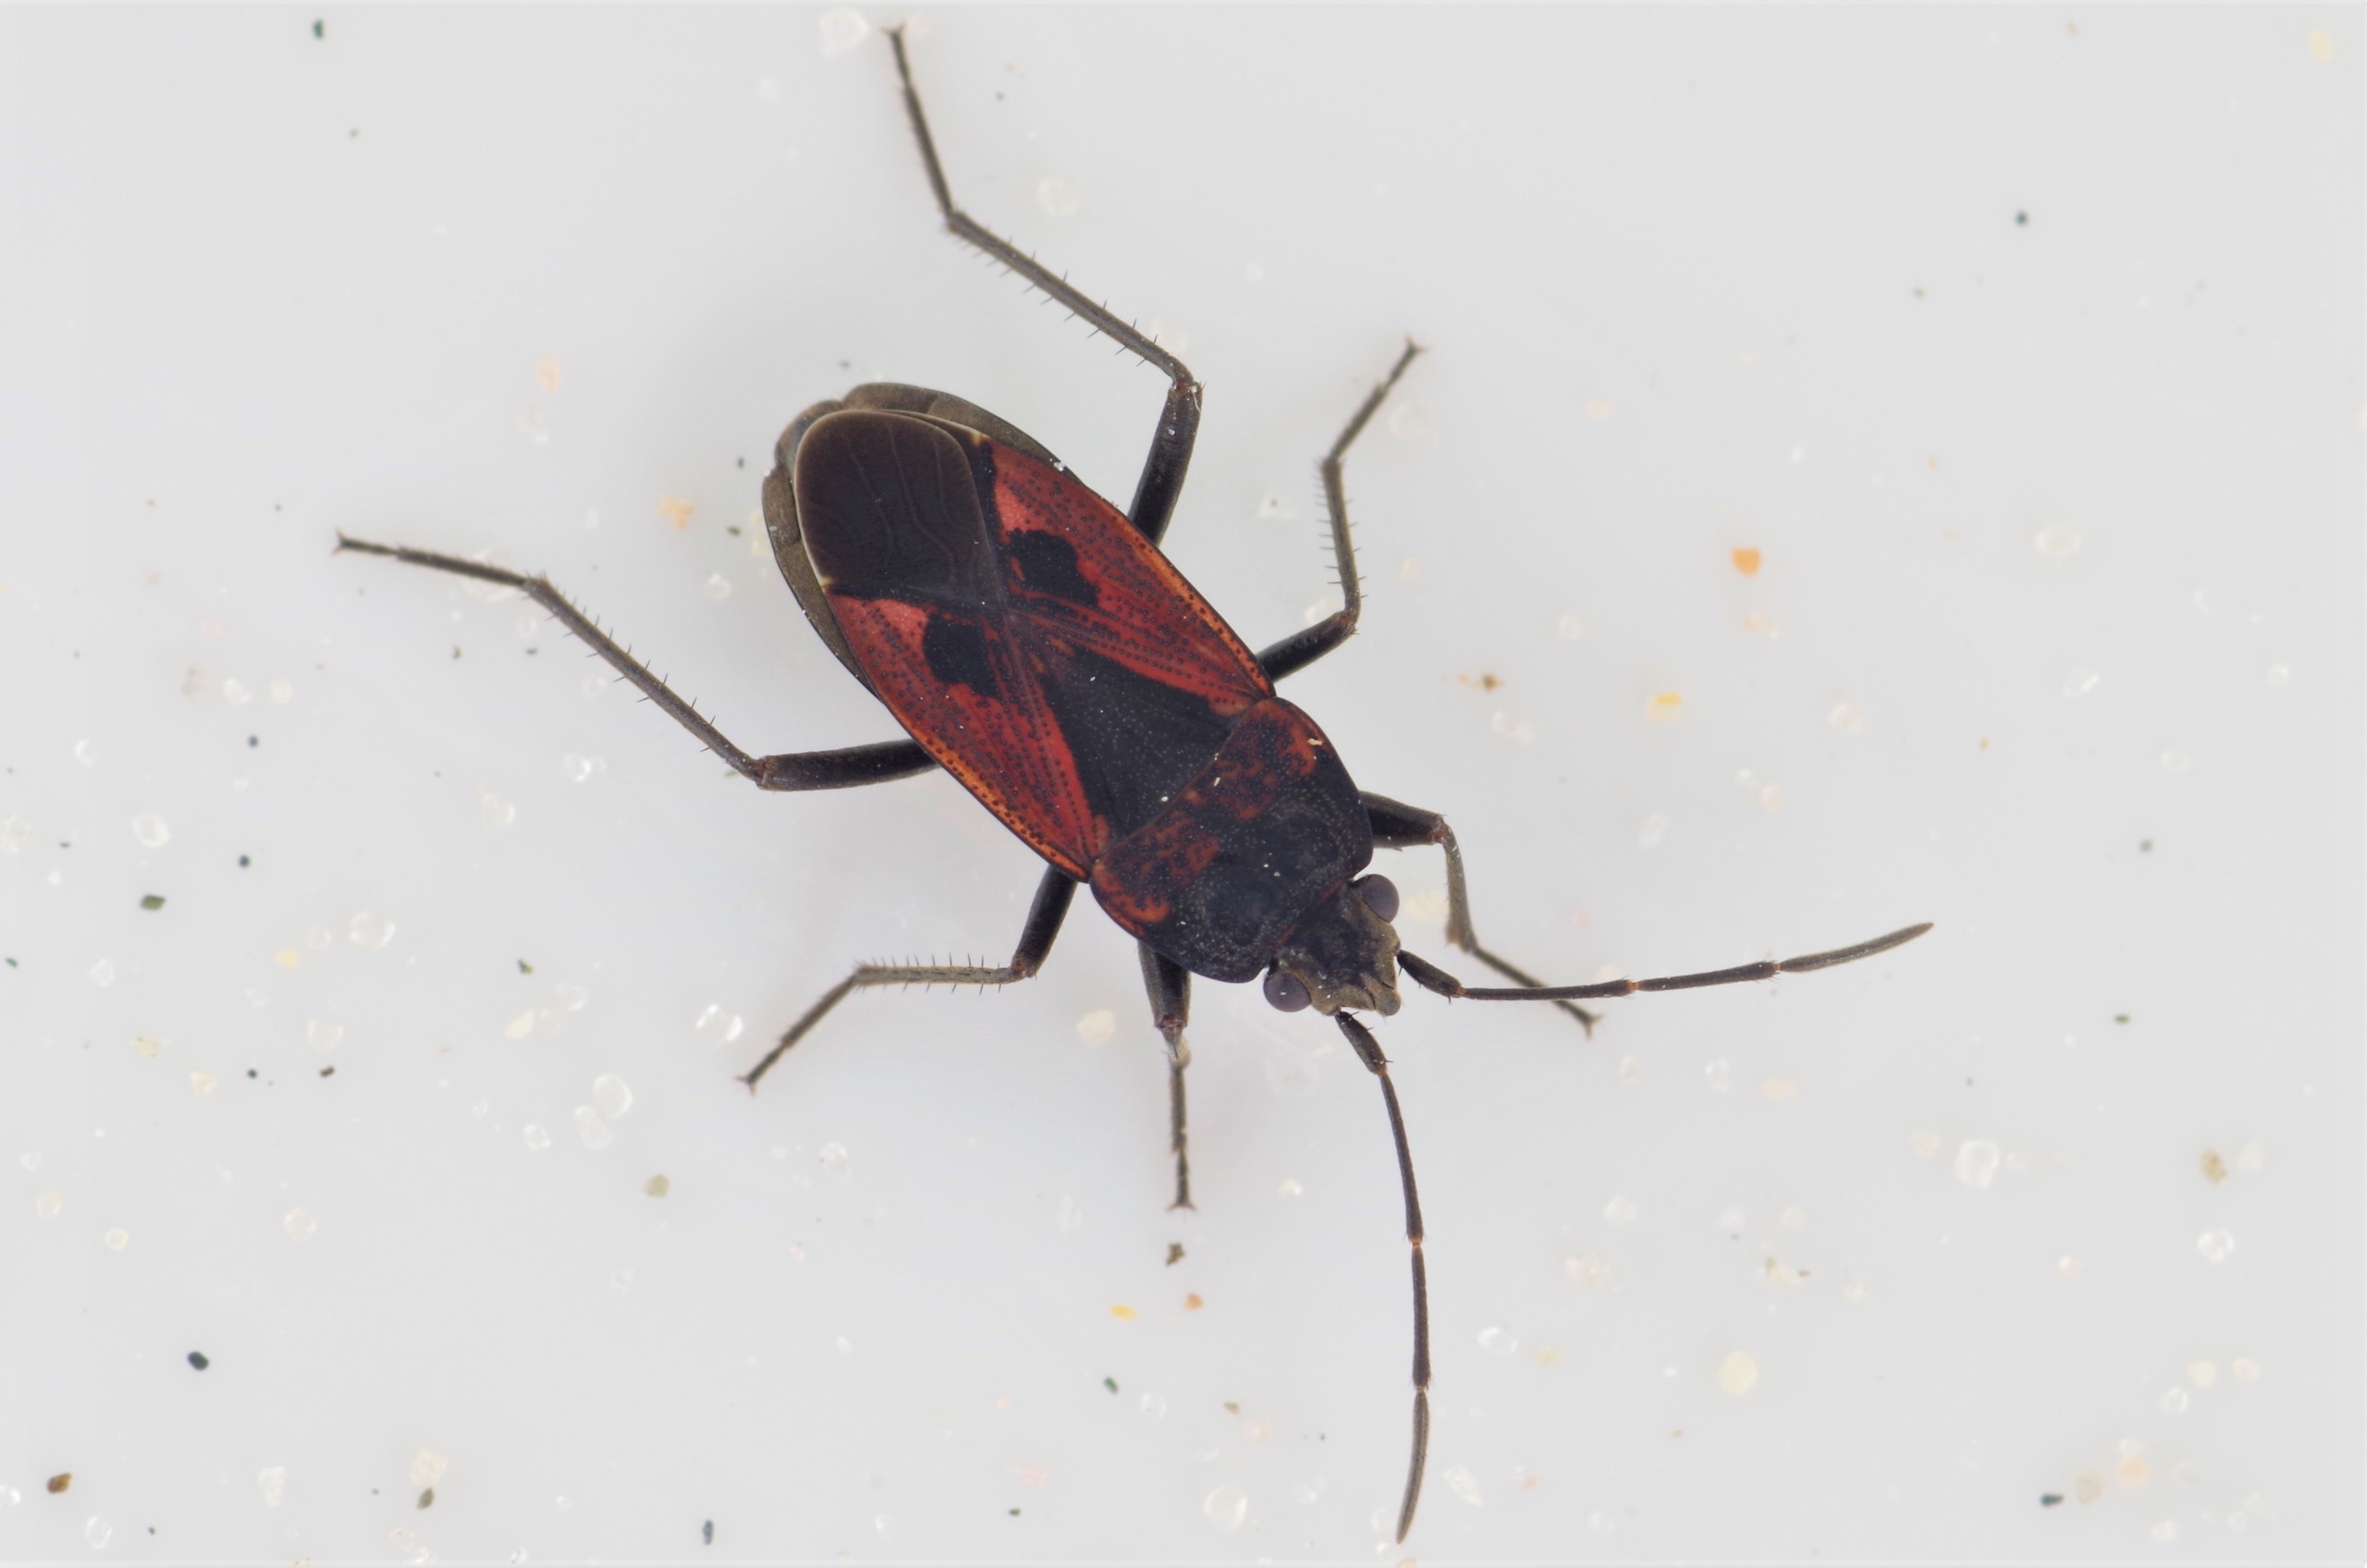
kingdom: Animalia
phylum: Arthropoda
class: Insecta
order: Hemiptera
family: Rhyparochromidae
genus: Rhyparochromus
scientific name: Rhyparochromus phoeniceus
